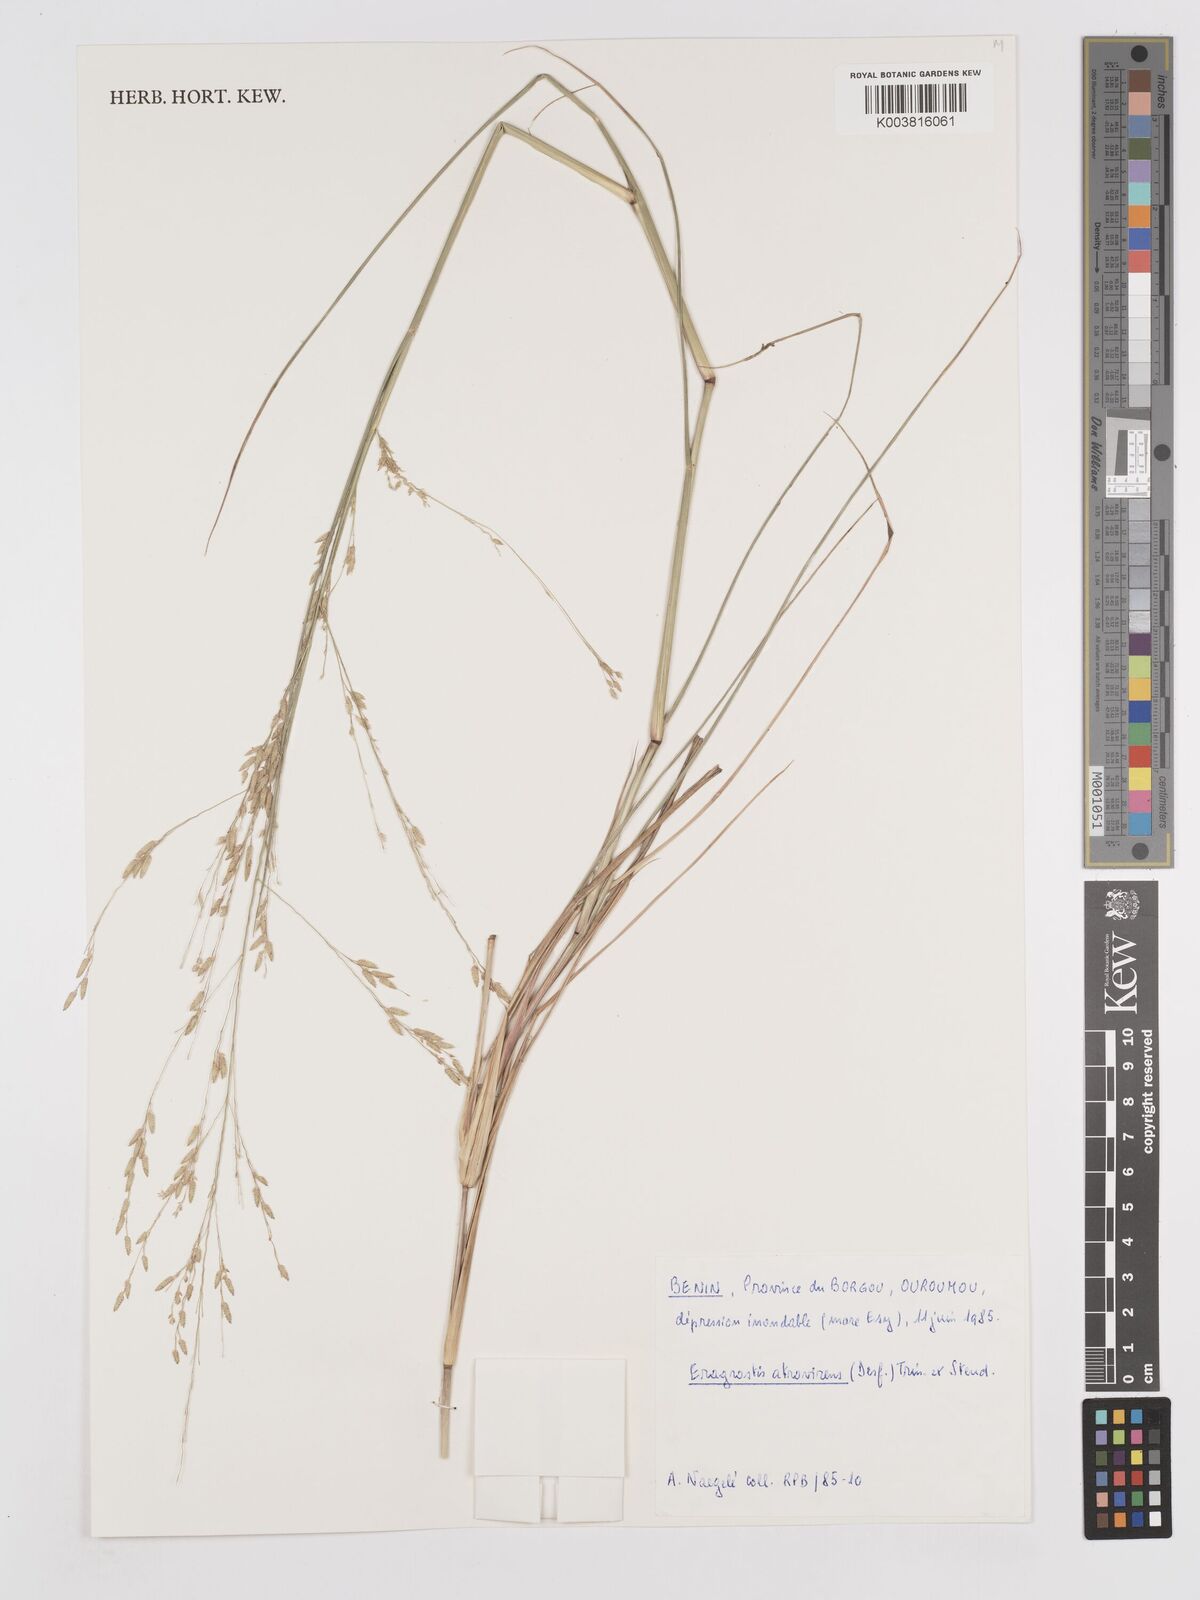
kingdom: Plantae
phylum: Tracheophyta
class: Liliopsida
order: Poales
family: Poaceae
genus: Eragrostis
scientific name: Eragrostis atrovirens
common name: Thalia lovegrass
